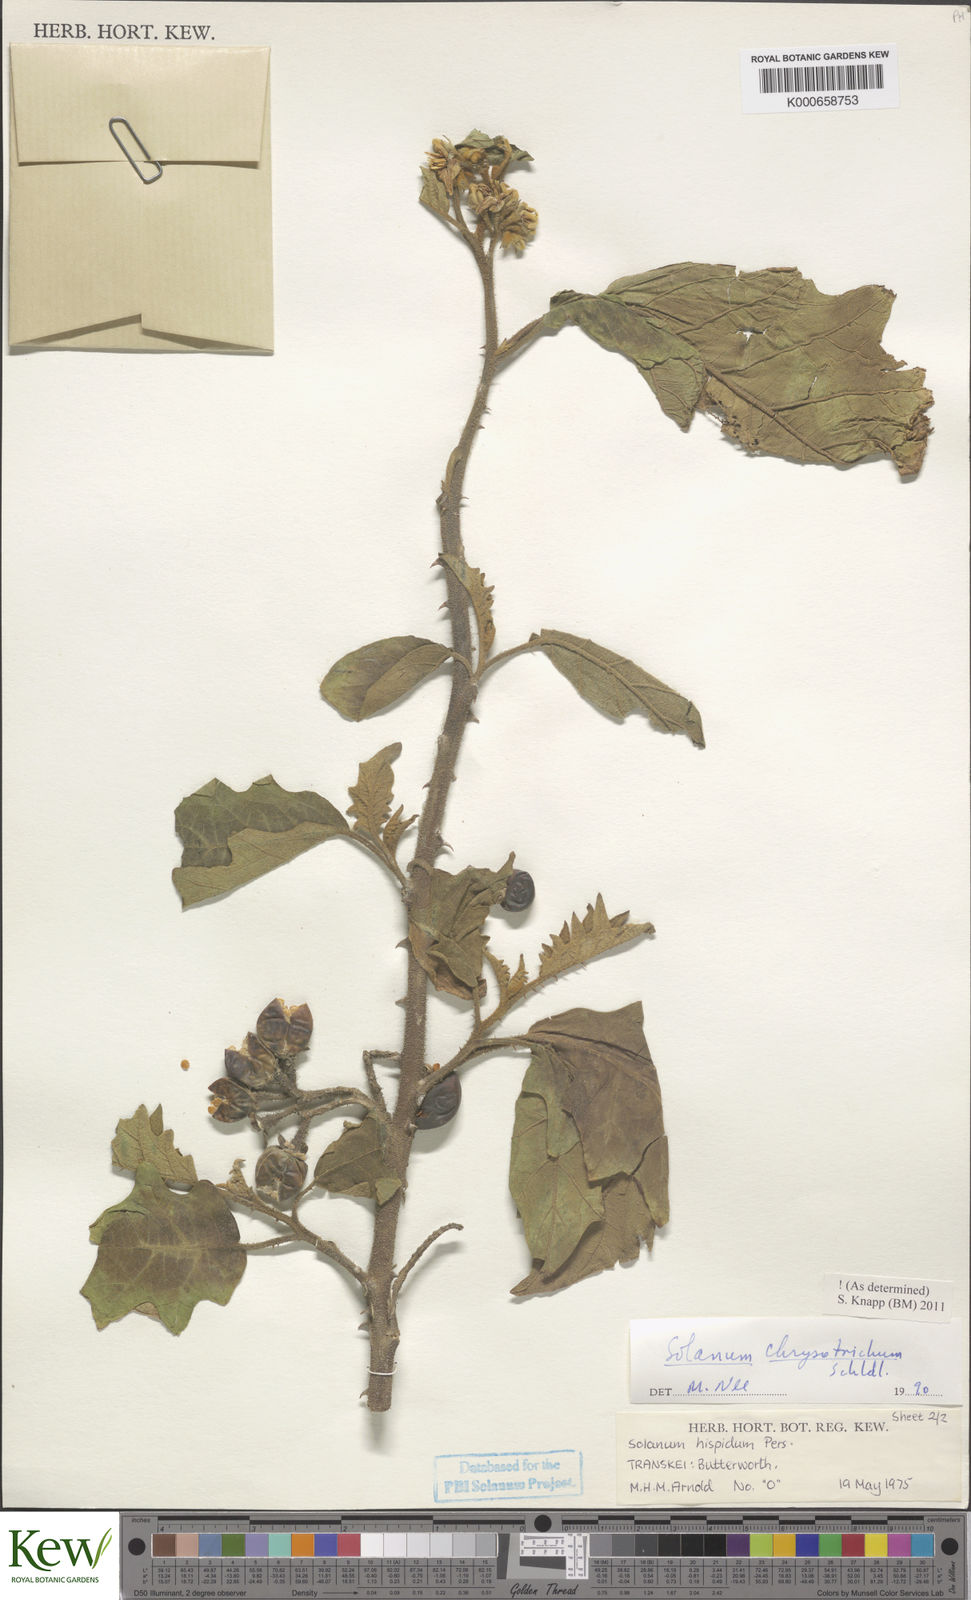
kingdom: Plantae
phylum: Tracheophyta
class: Magnoliopsida
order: Solanales
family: Solanaceae
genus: Solanum
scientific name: Solanum chrysotrichum
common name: Nightshade
